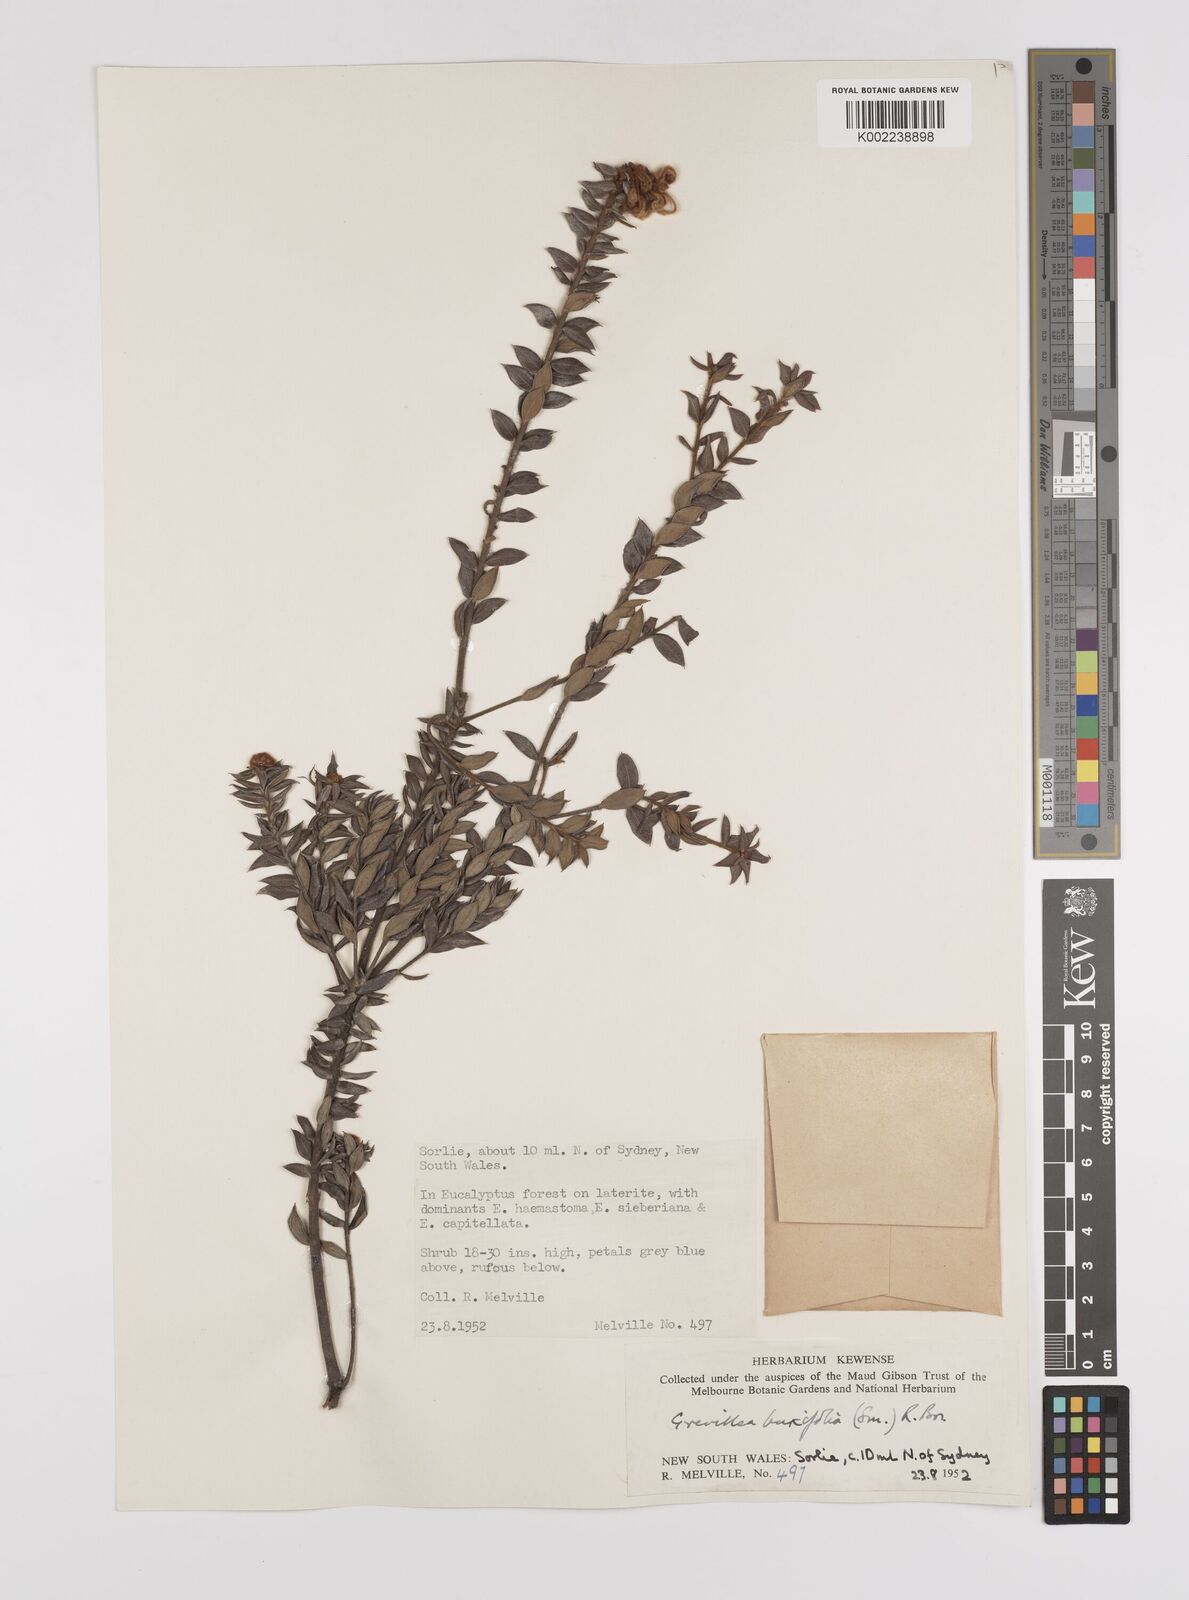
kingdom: Plantae
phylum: Tracheophyta
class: Magnoliopsida
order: Proteales
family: Proteaceae
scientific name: Proteaceae
